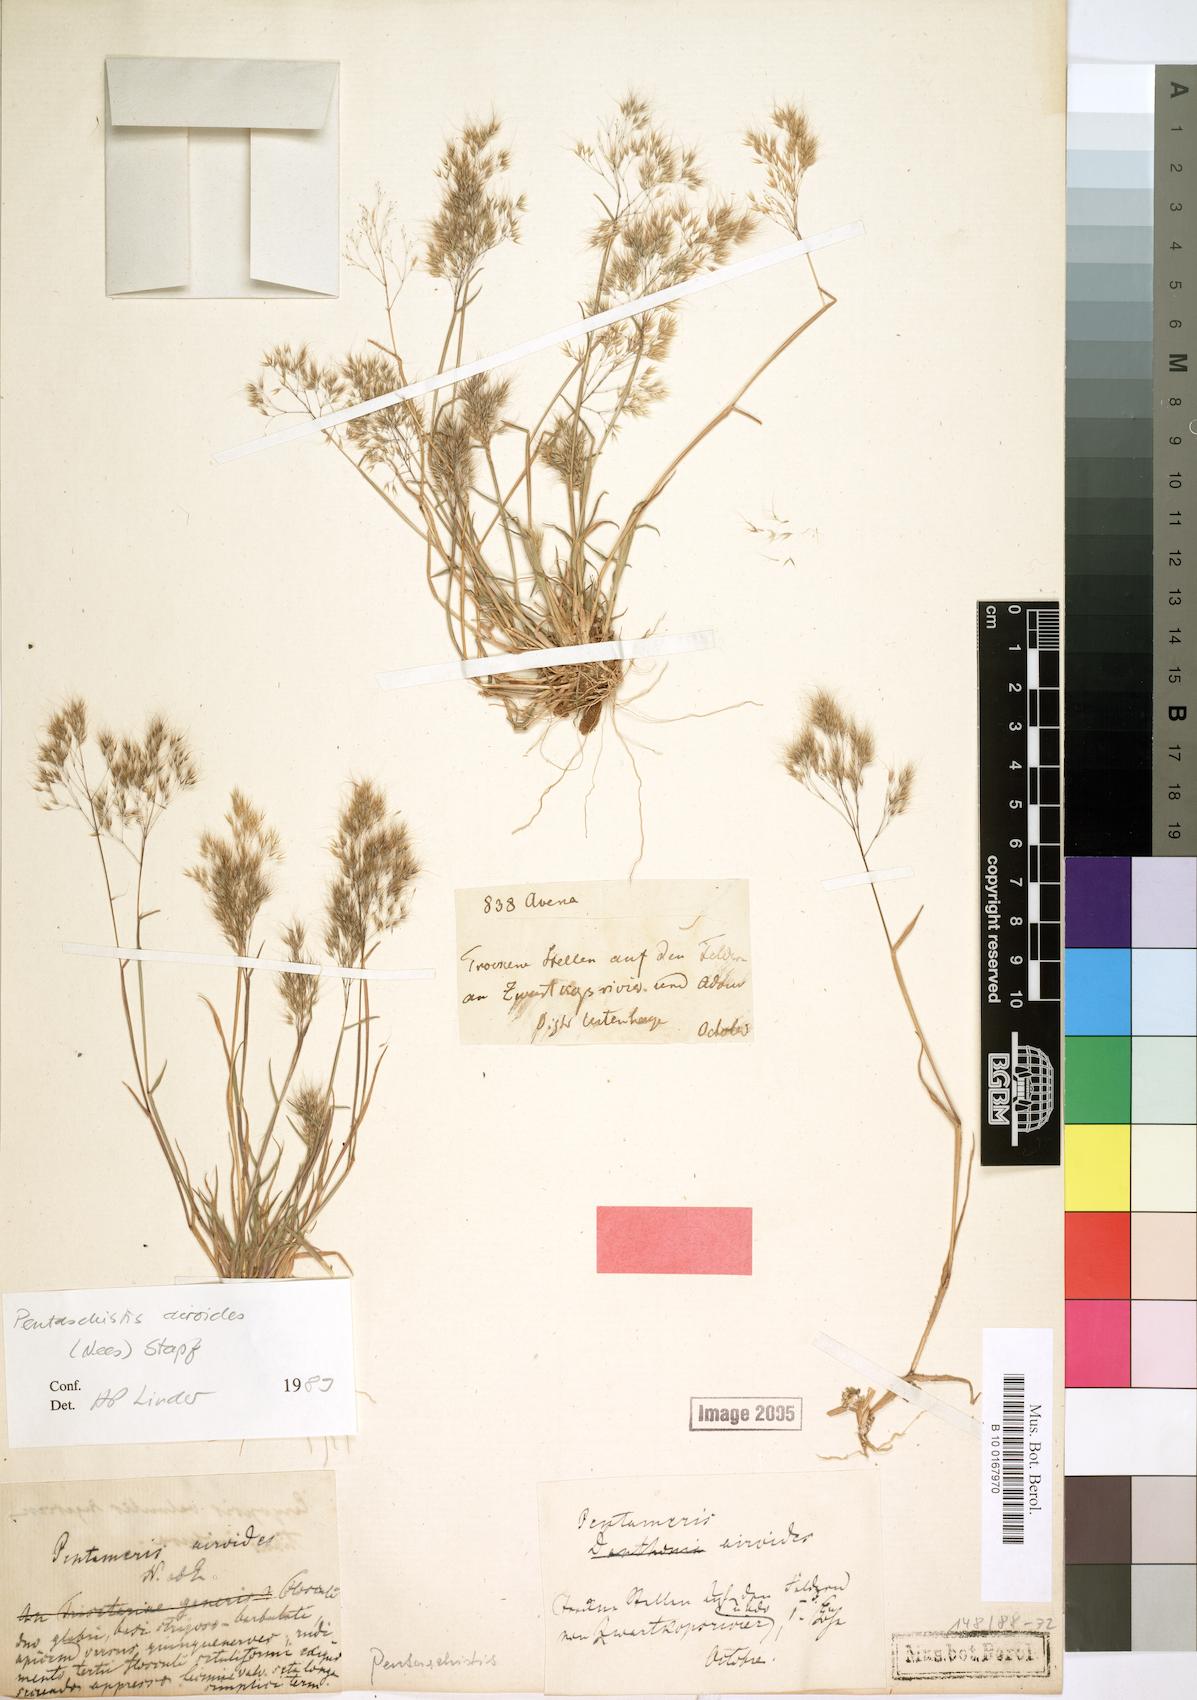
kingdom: Plantae
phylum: Tracheophyta
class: Liliopsida
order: Poales
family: Poaceae
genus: Pentameris
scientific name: Pentameris airoides
